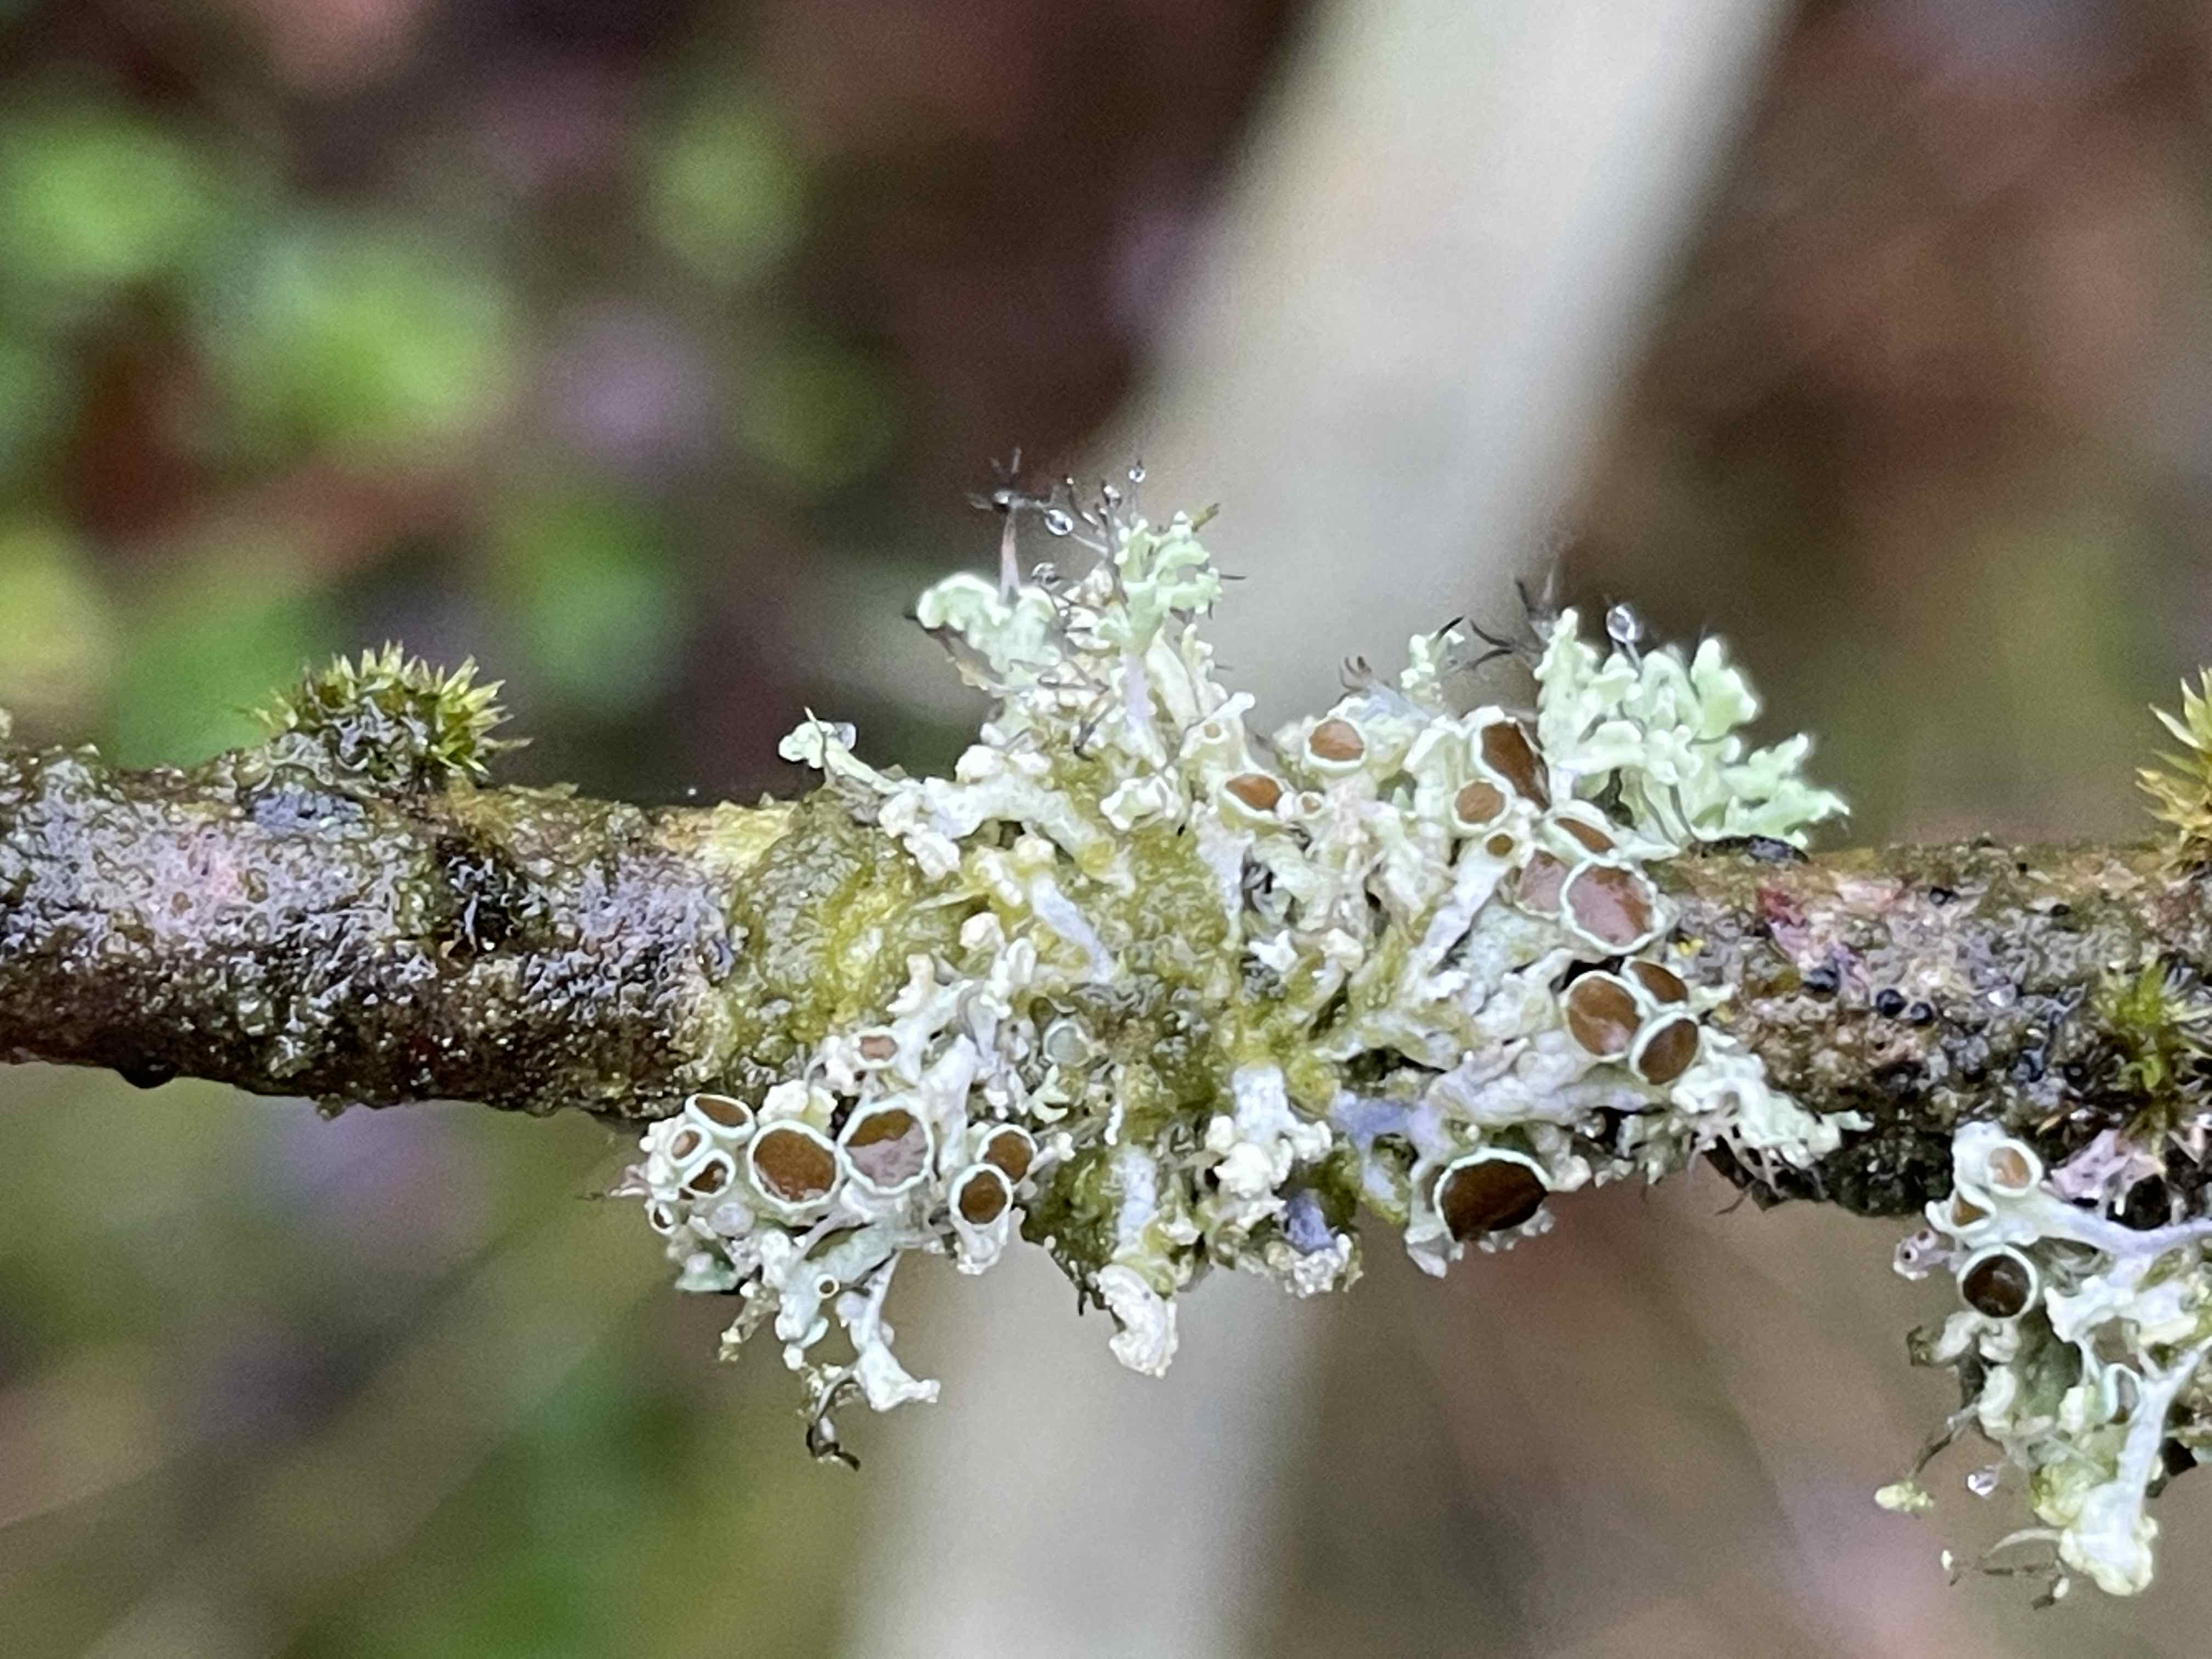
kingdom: Fungi
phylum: Ascomycota
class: Lecanoromycetes
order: Caliciales
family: Physciaceae
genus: Physcia
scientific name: Physcia tenella
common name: spæd rosetlav
